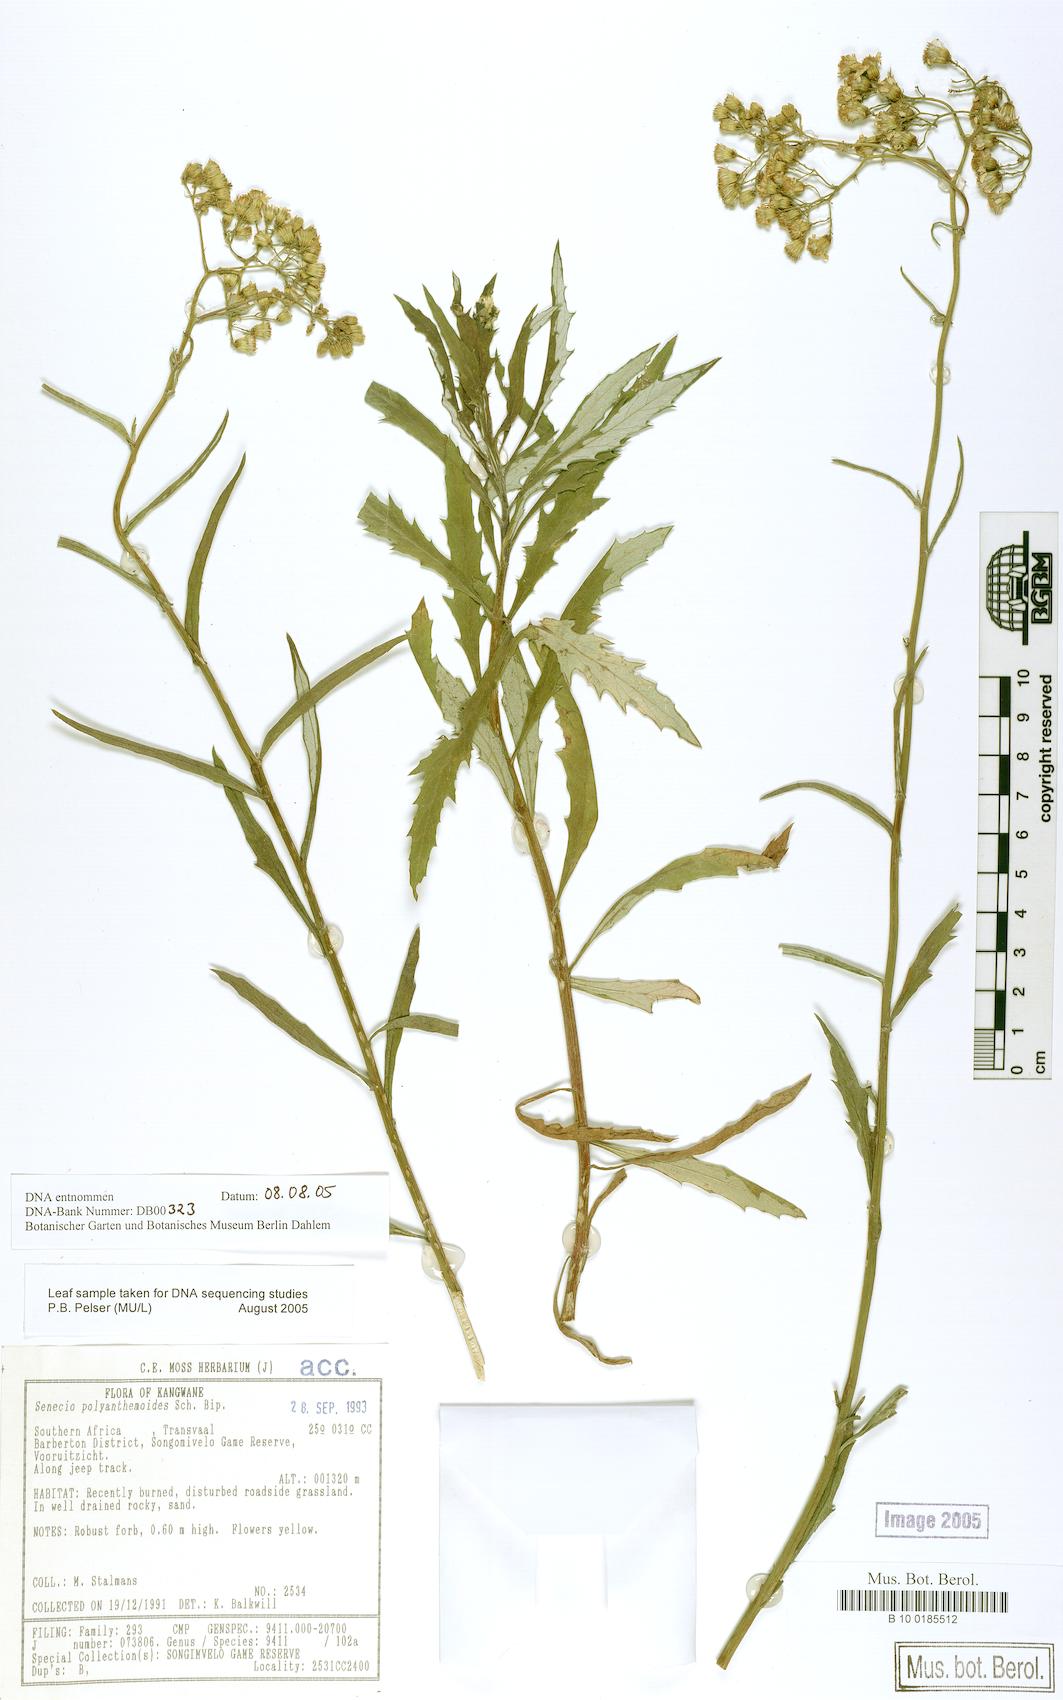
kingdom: Plantae
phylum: Tracheophyta
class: Magnoliopsida
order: Asterales
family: Asteraceae
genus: Senecio
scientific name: Senecio polyanthemoides
